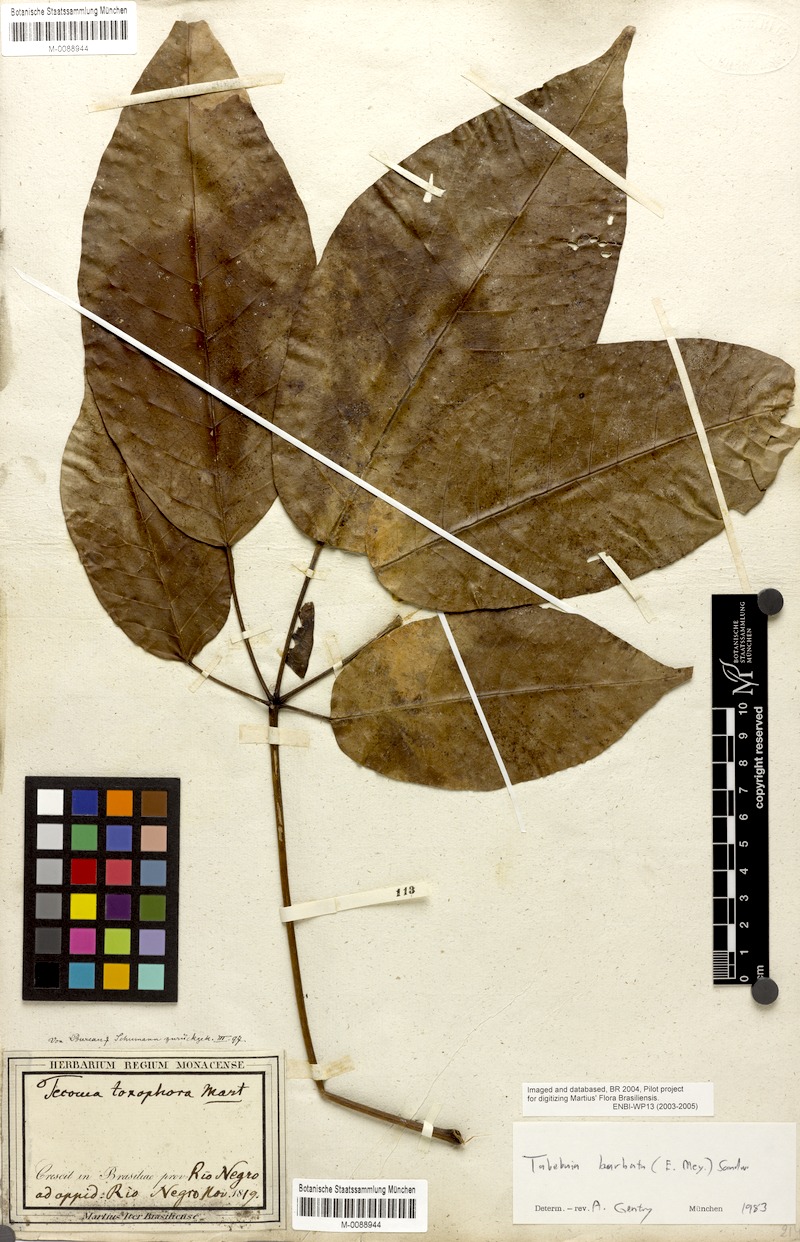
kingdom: Plantae
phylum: Tracheophyta
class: Magnoliopsida
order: Lamiales
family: Bignoniaceae
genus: Handroanthus
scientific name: Handroanthus barbatus
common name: Trumpet trees
